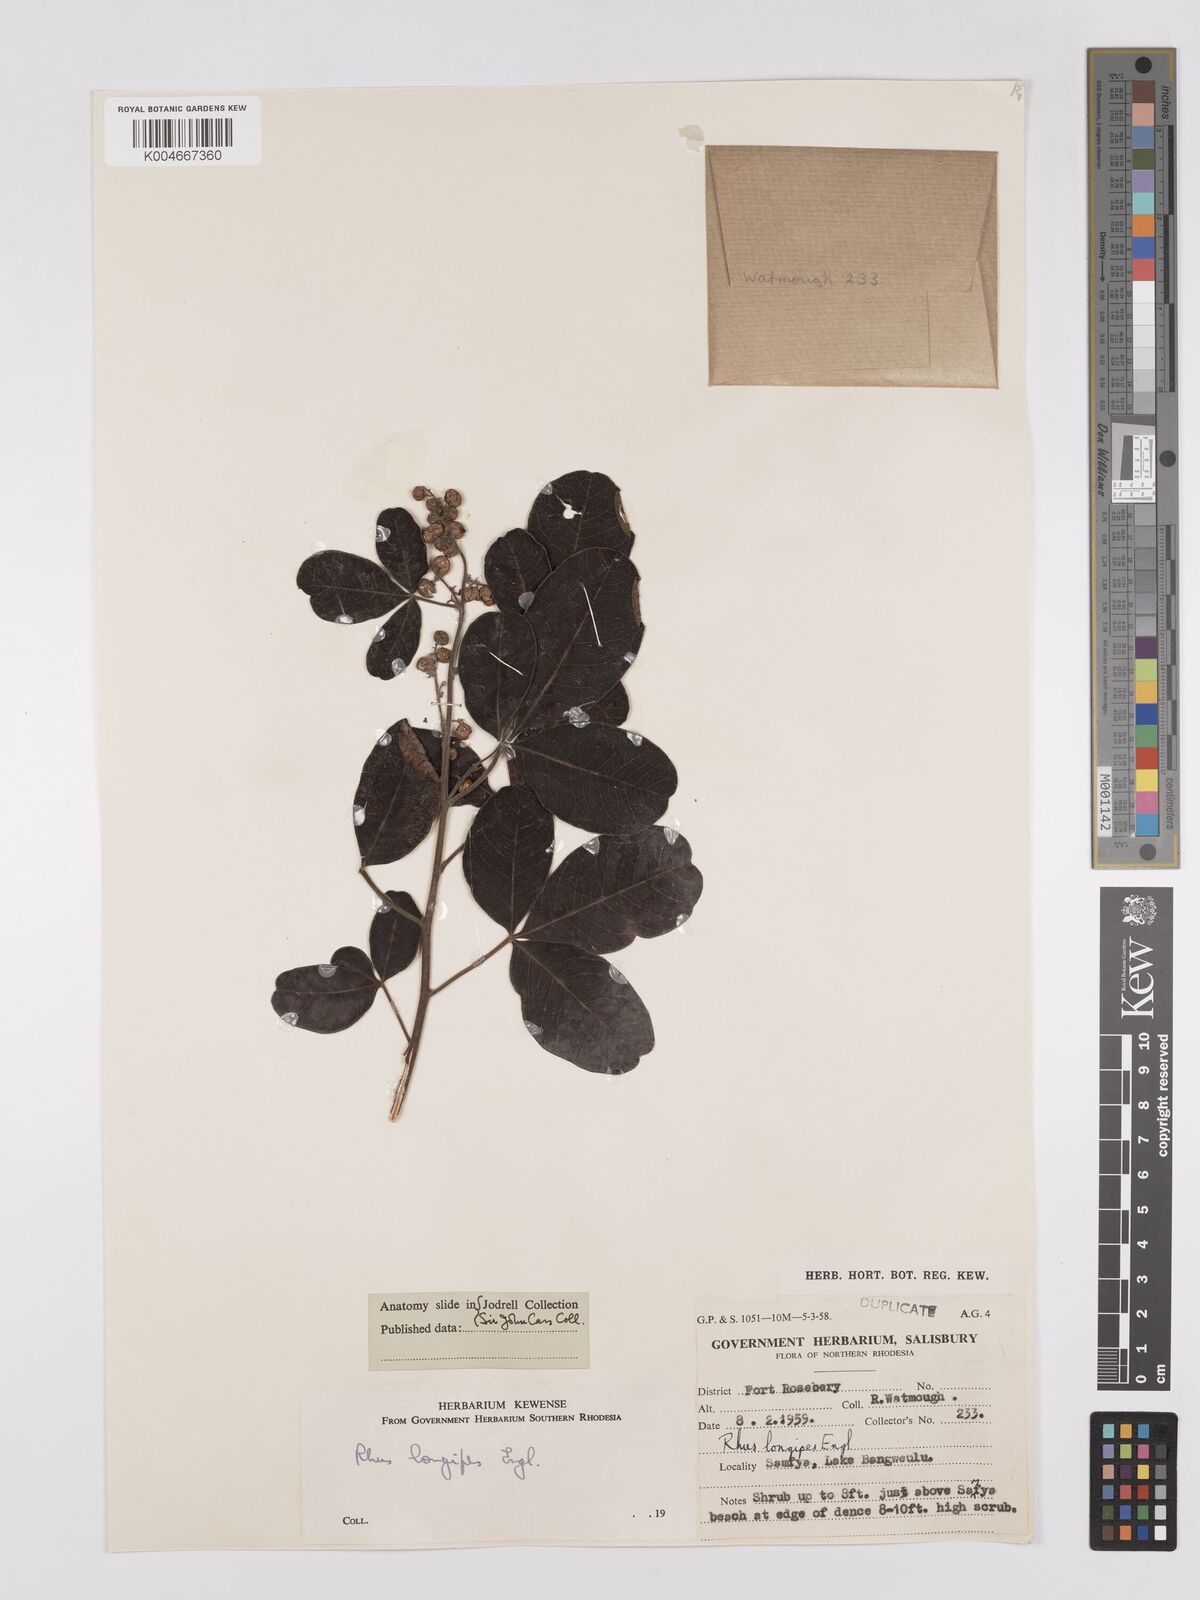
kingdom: Plantae
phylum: Tracheophyta
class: Magnoliopsida
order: Sapindales
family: Anacardiaceae
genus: Searsia
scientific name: Searsia longipes
